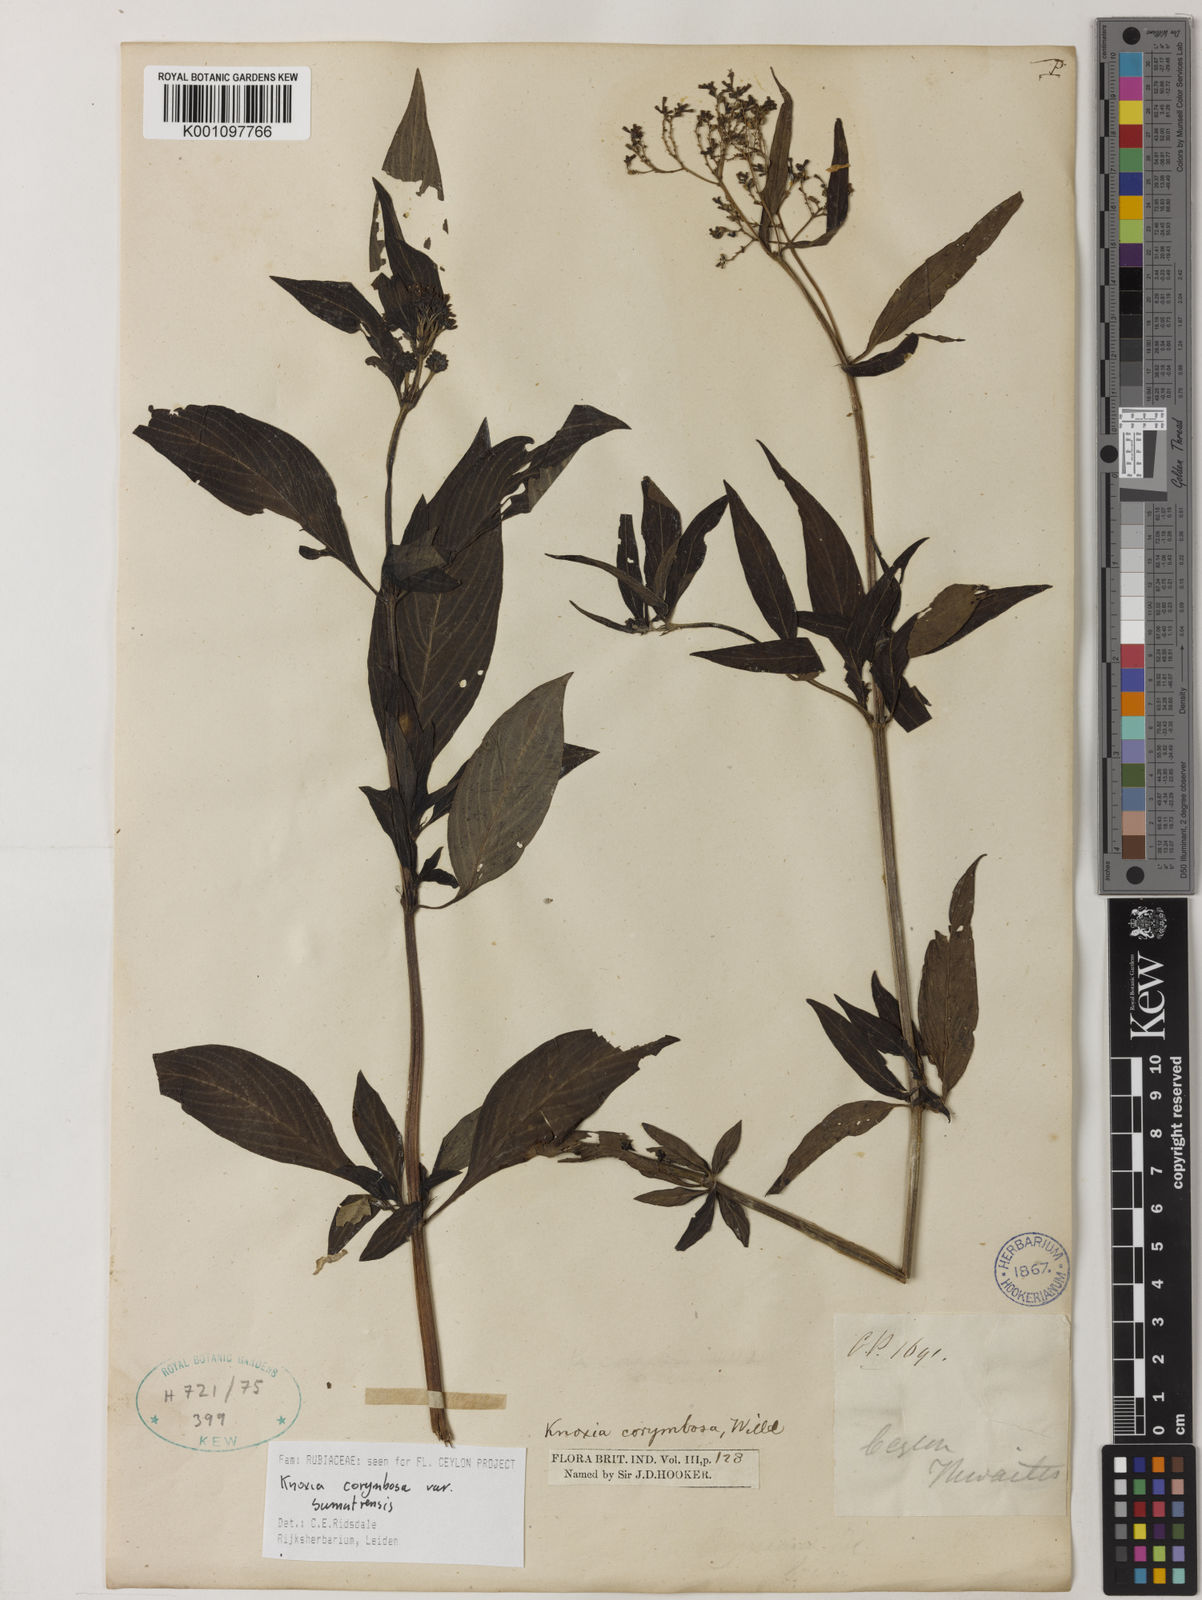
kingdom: Plantae
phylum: Tracheophyta
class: Magnoliopsida
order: Gentianales
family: Rubiaceae
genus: Knoxia
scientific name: Knoxia sumatrensis
